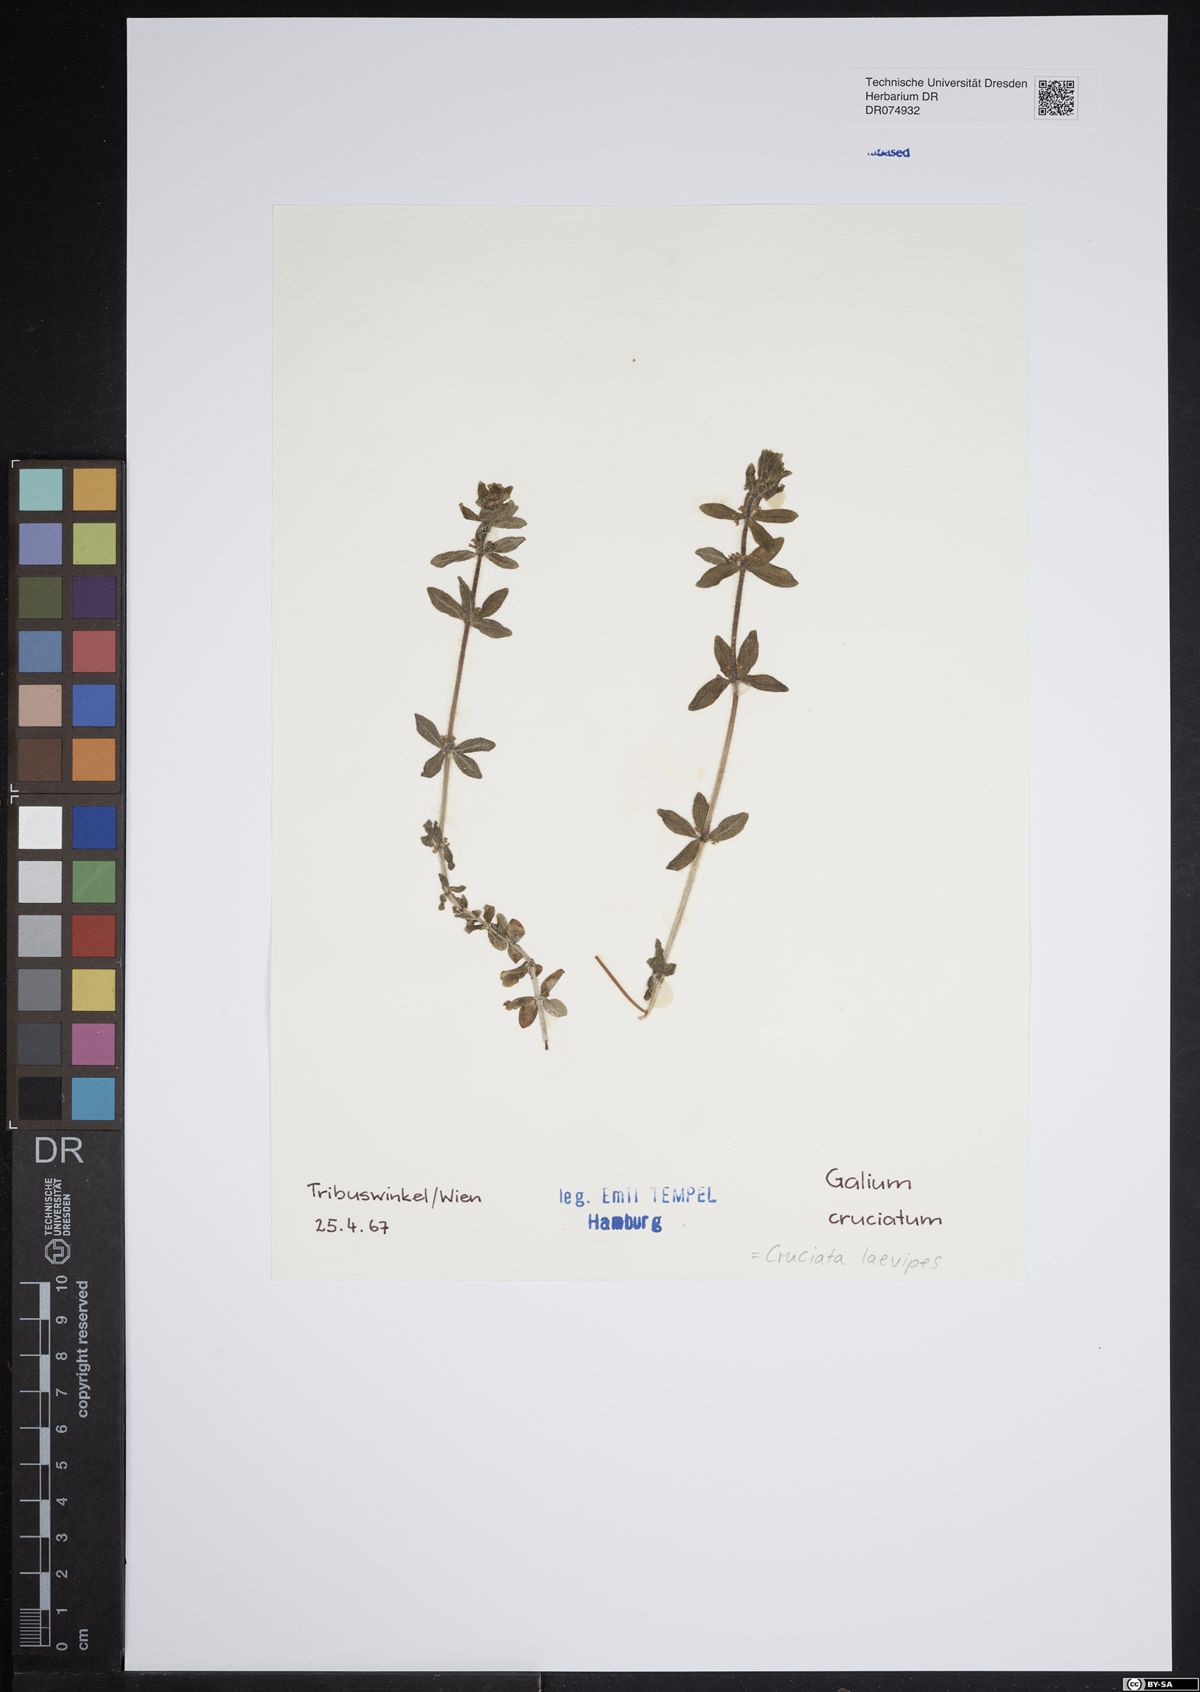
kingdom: Plantae
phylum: Tracheophyta
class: Magnoliopsida
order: Gentianales
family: Rubiaceae
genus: Cruciata
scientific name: Cruciata laevipes
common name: Crosswort
